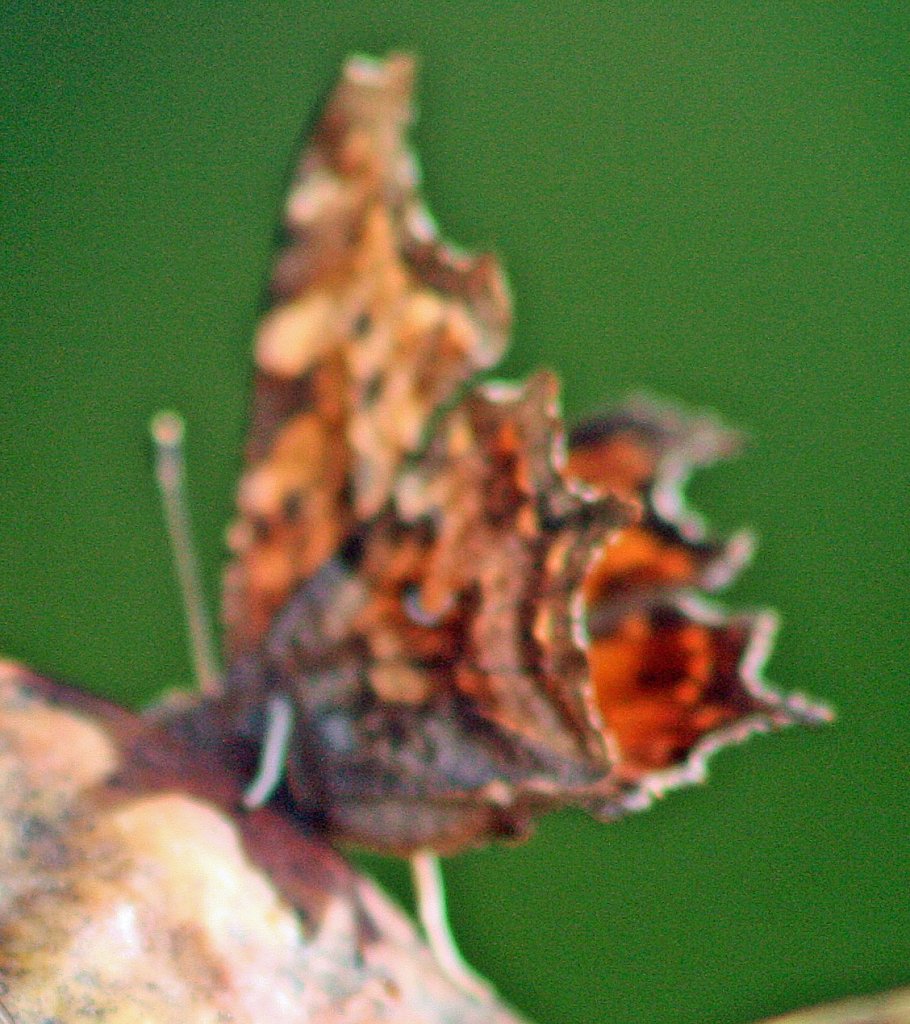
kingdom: Animalia
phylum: Arthropoda
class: Insecta
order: Lepidoptera
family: Nymphalidae
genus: Polygonia
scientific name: Polygonia
